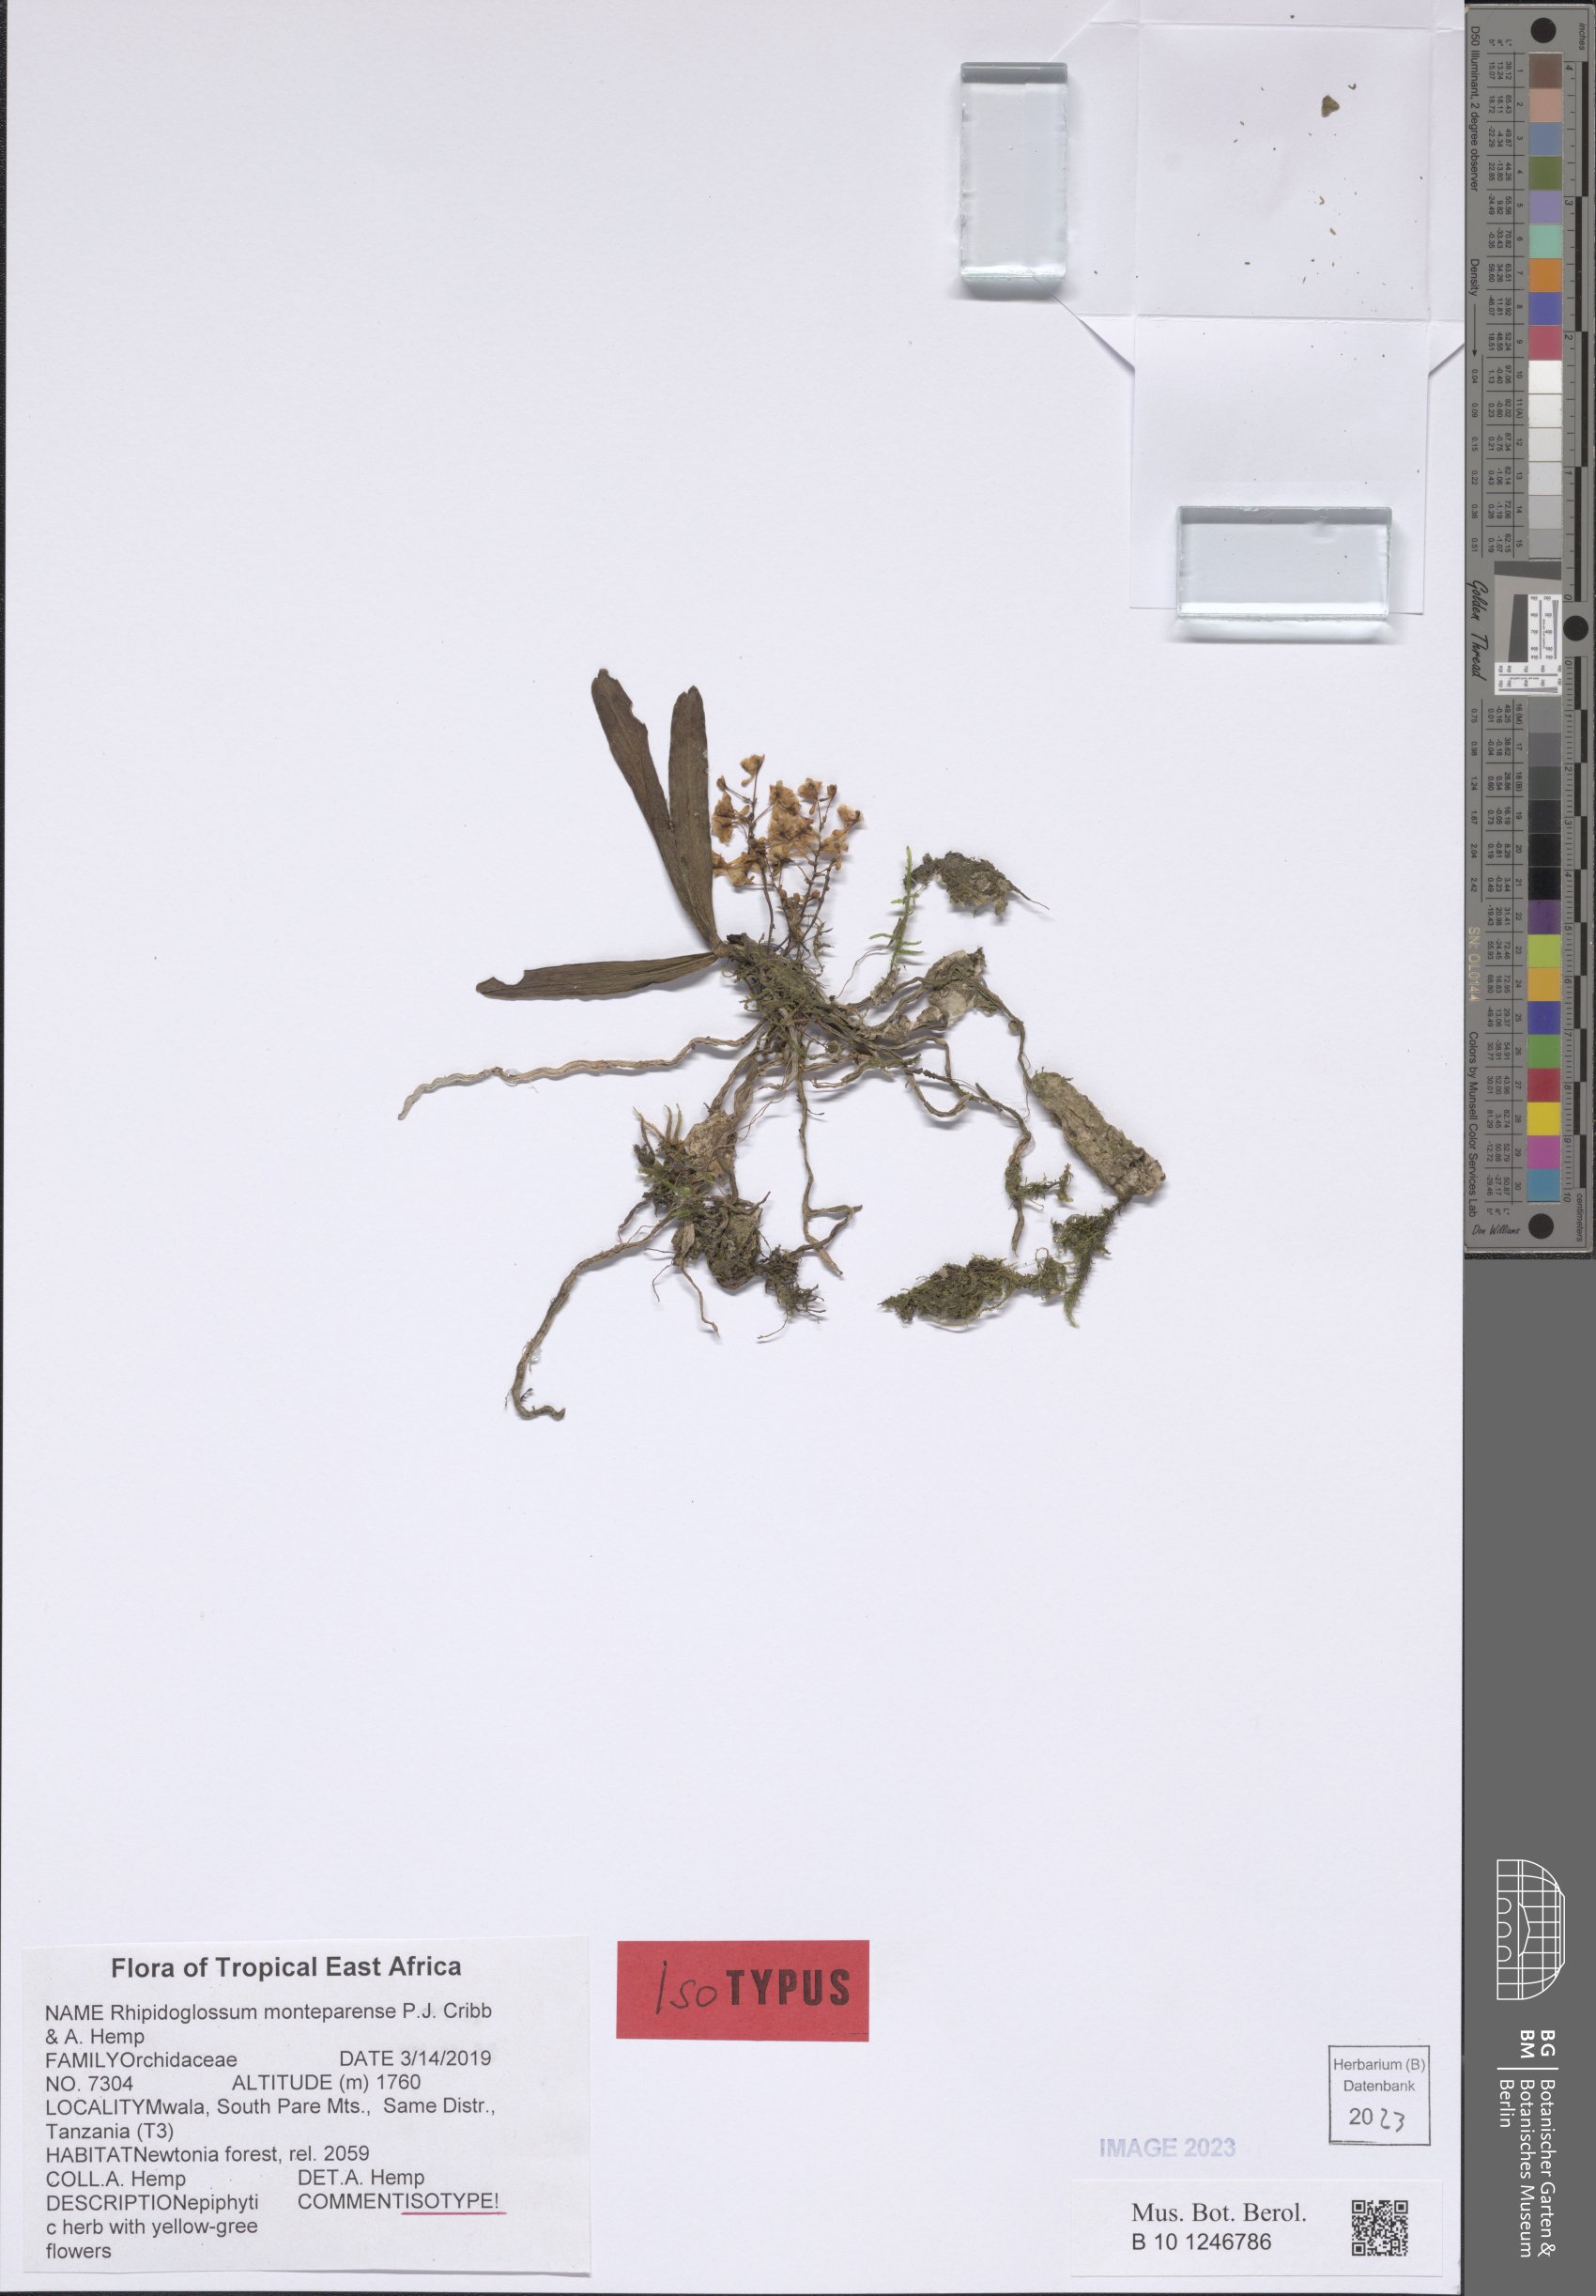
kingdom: Plantae
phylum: Tracheophyta
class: Liliopsida
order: Asparagales
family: Orchidaceae
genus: Rhipidoglossum
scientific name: Rhipidoglossum
